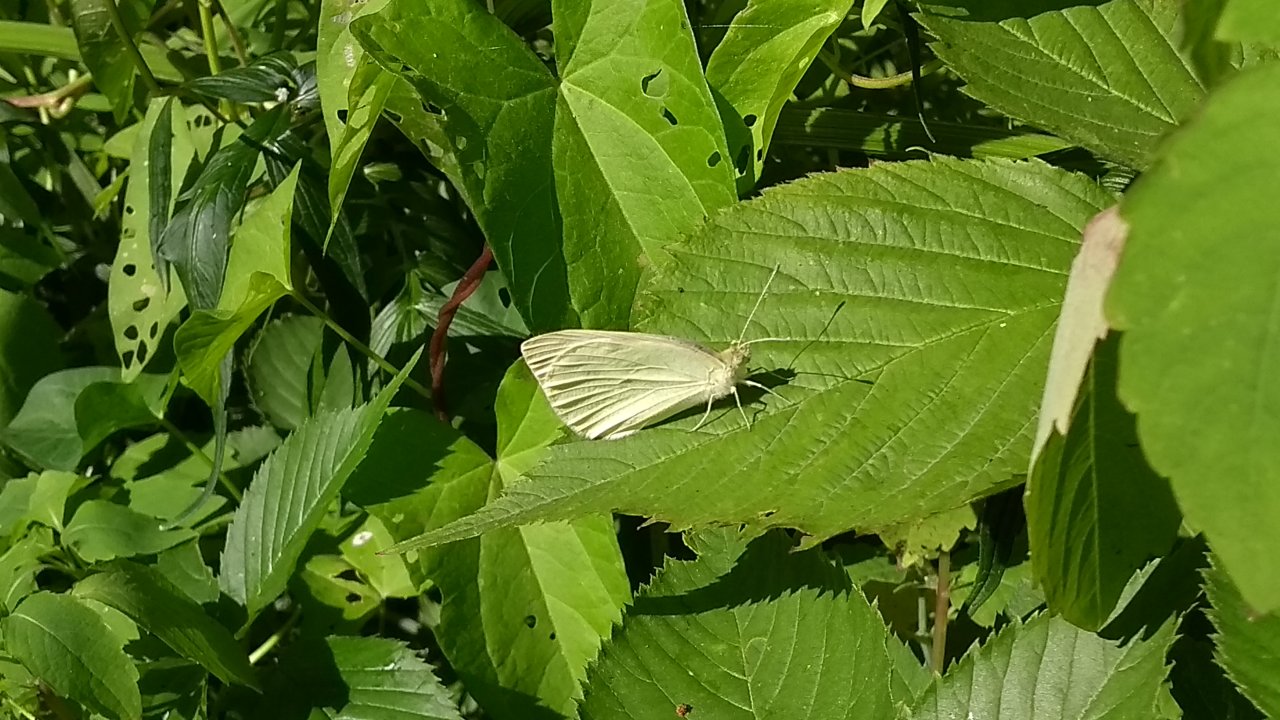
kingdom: Animalia
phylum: Arthropoda
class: Insecta
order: Lepidoptera
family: Pieridae
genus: Pieris
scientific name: Pieris oleracea
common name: Mustard White
